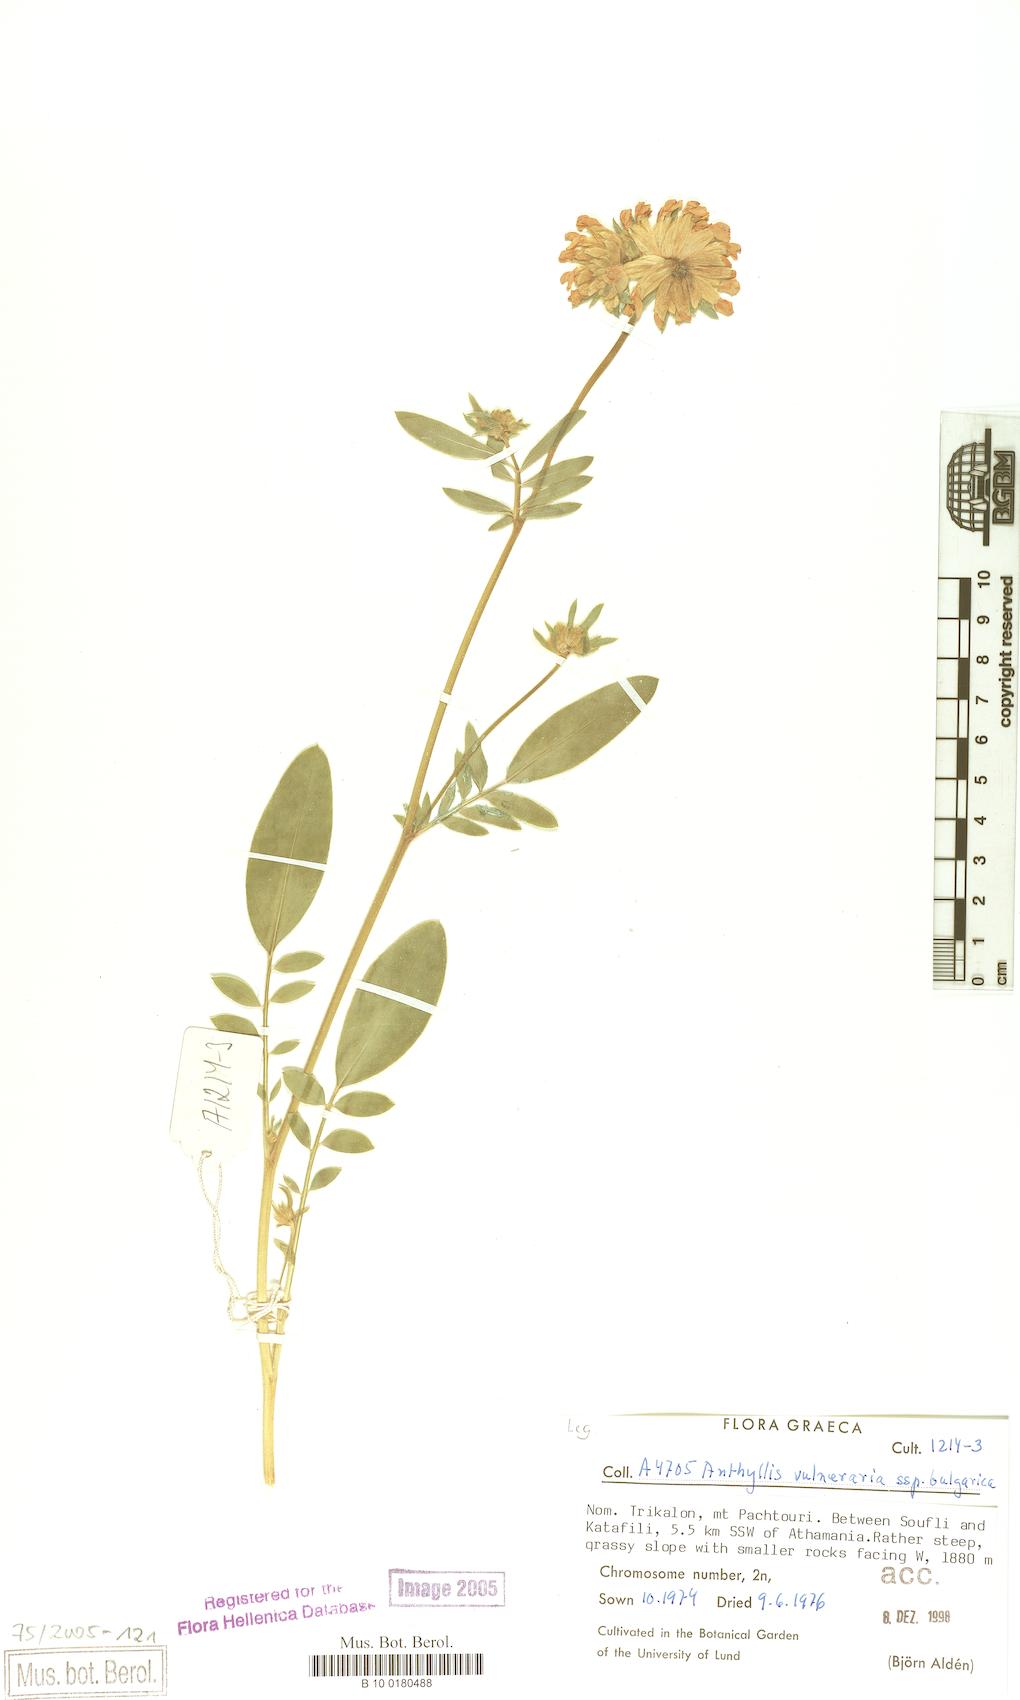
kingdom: Plantae
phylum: Tracheophyta
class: Magnoliopsida
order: Fabales
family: Fabaceae
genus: Anthyllis
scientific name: Anthyllis vulneraria
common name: Kidney vetch
